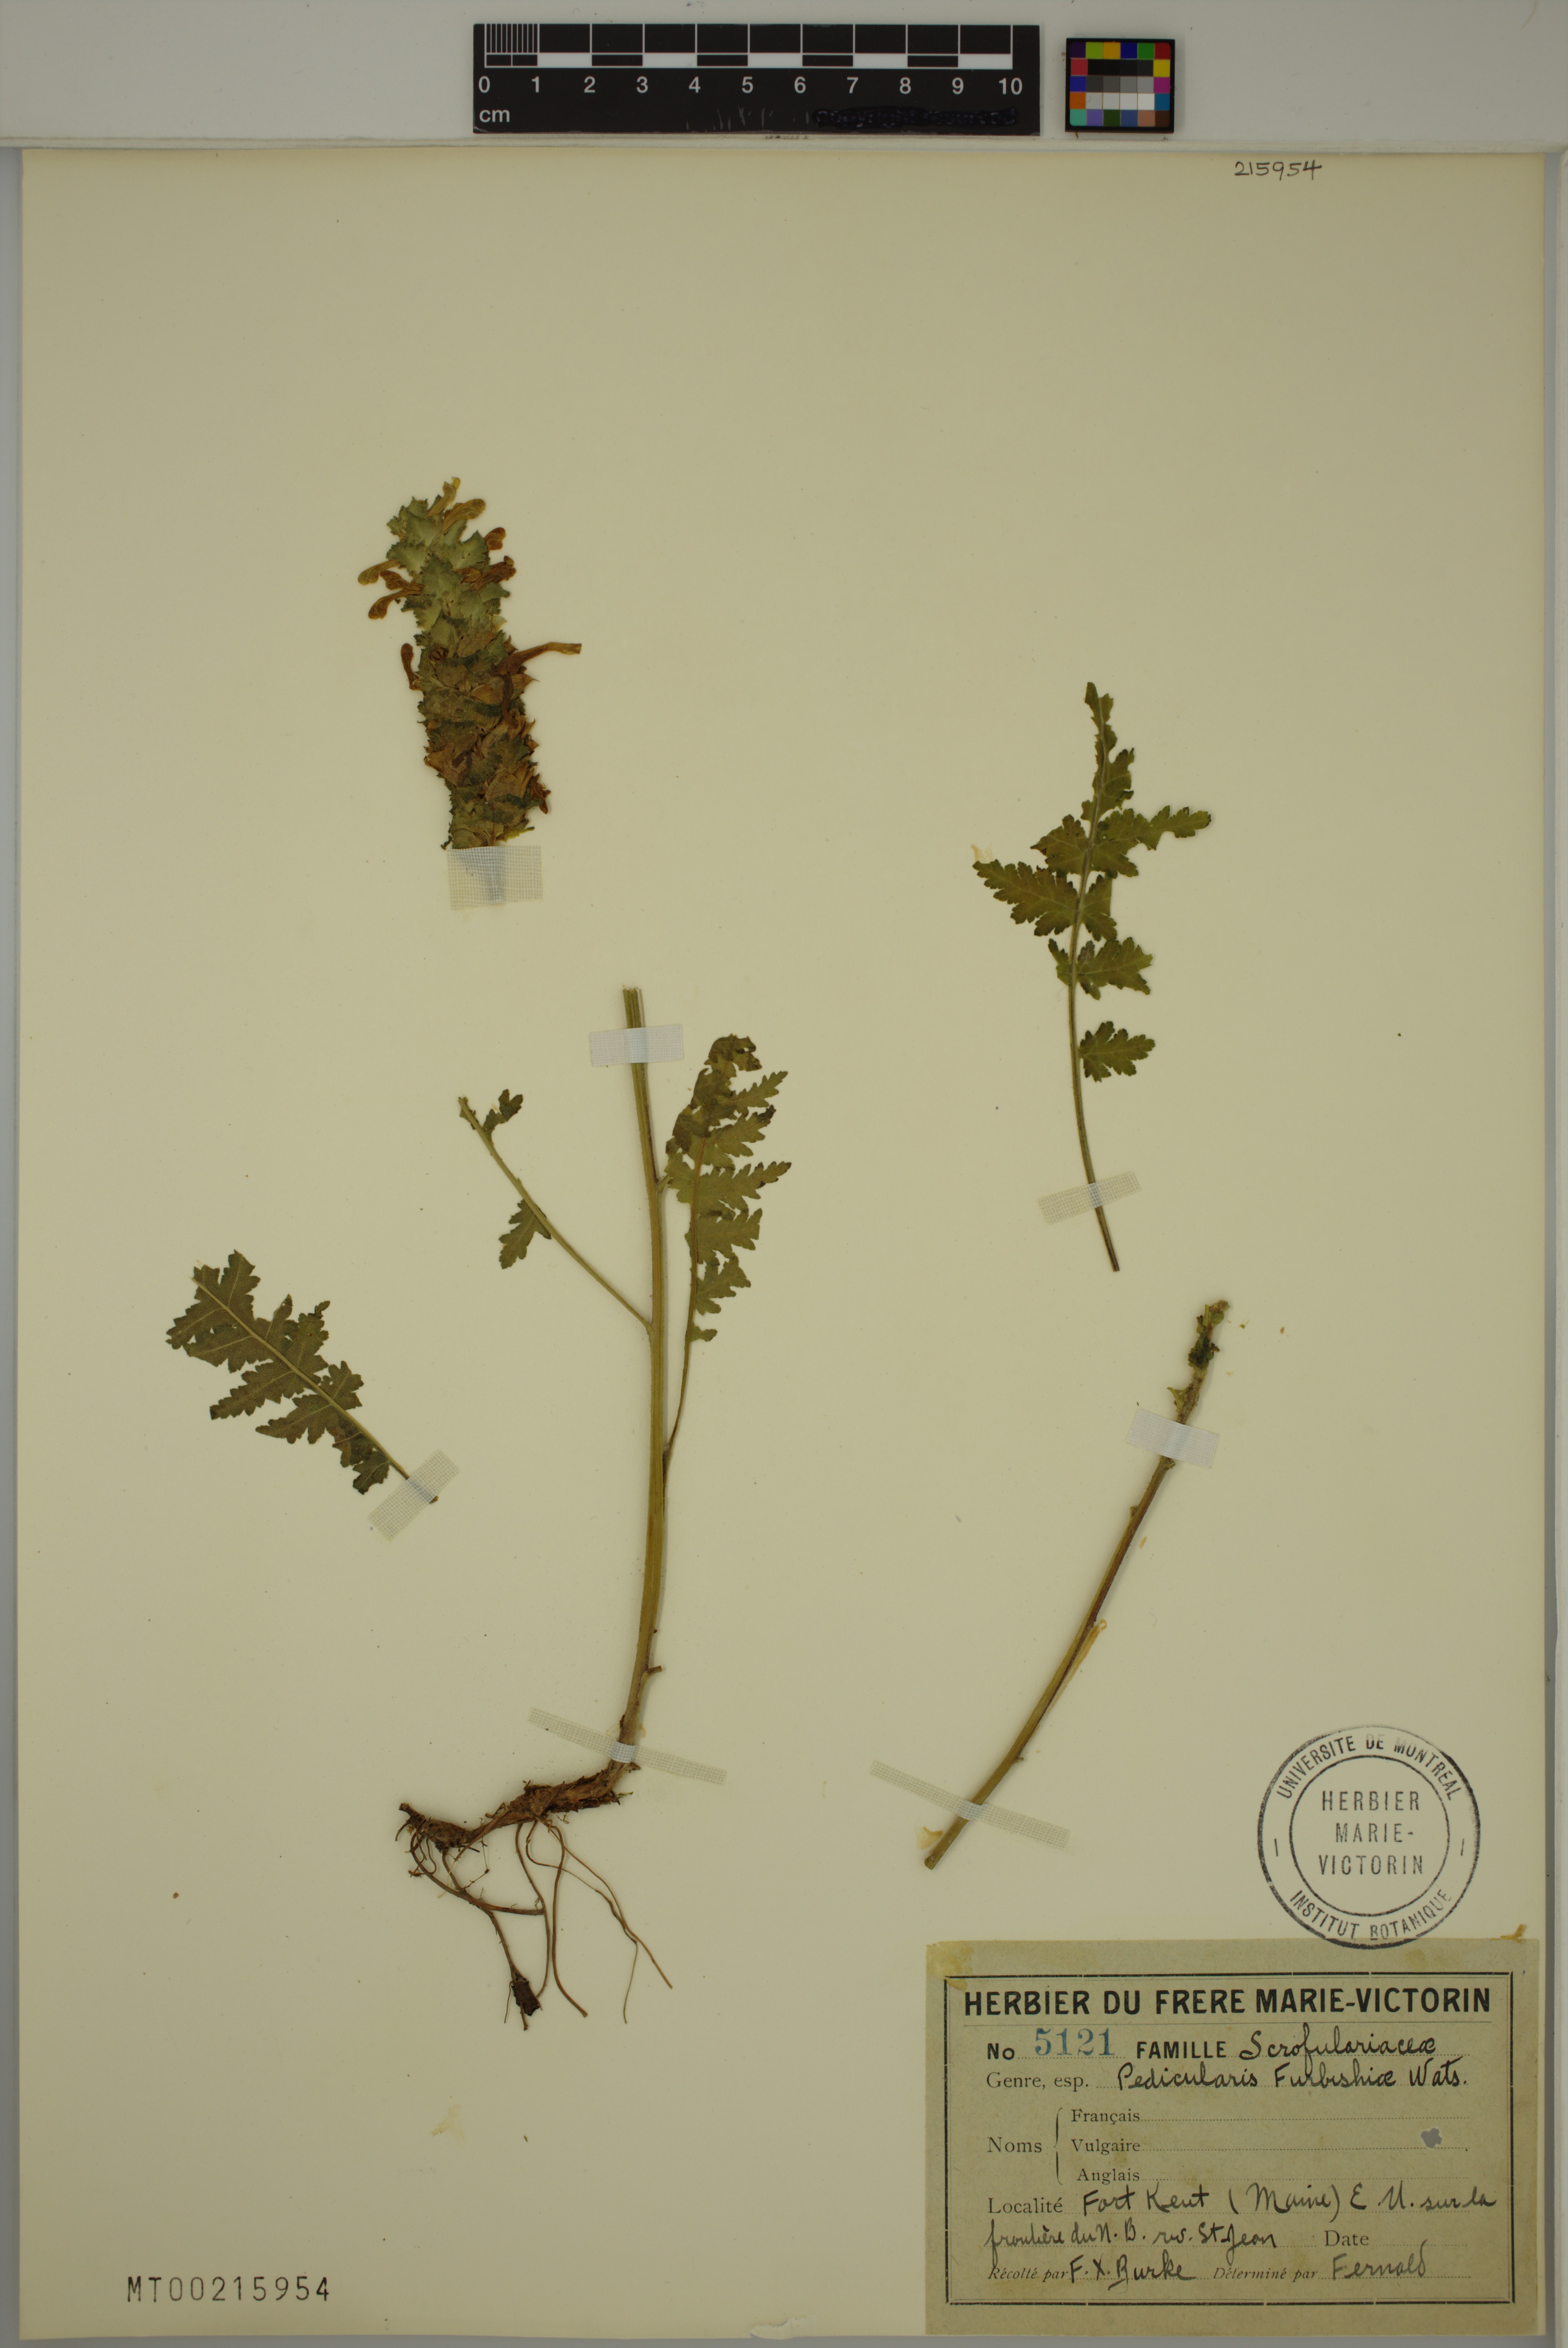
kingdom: Plantae
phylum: Tracheophyta
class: Magnoliopsida
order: Lamiales
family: Orobanchaceae
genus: Pedicularis
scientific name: Pedicularis furbishiae
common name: Furbish's lousewort
